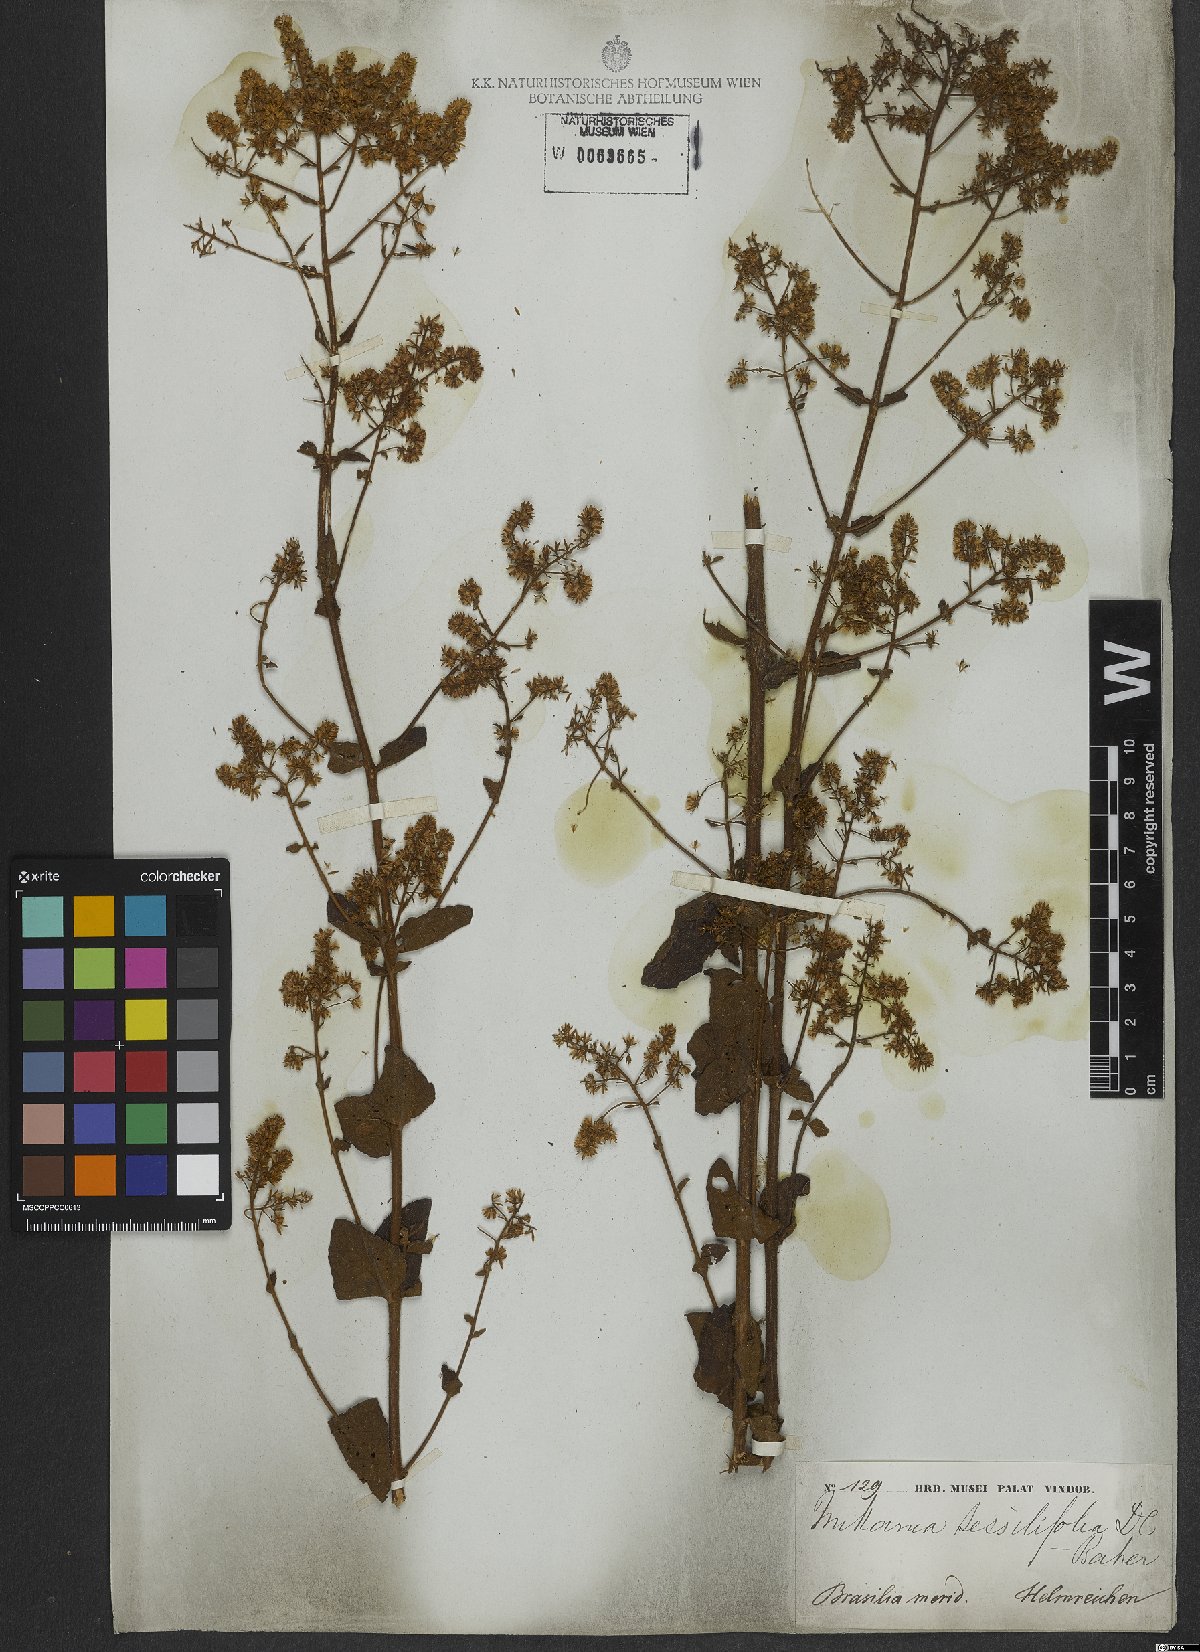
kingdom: Plantae
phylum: Tracheophyta
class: Magnoliopsida
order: Asterales
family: Asteraceae
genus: Mikania
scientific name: Mikania sessilifolia
